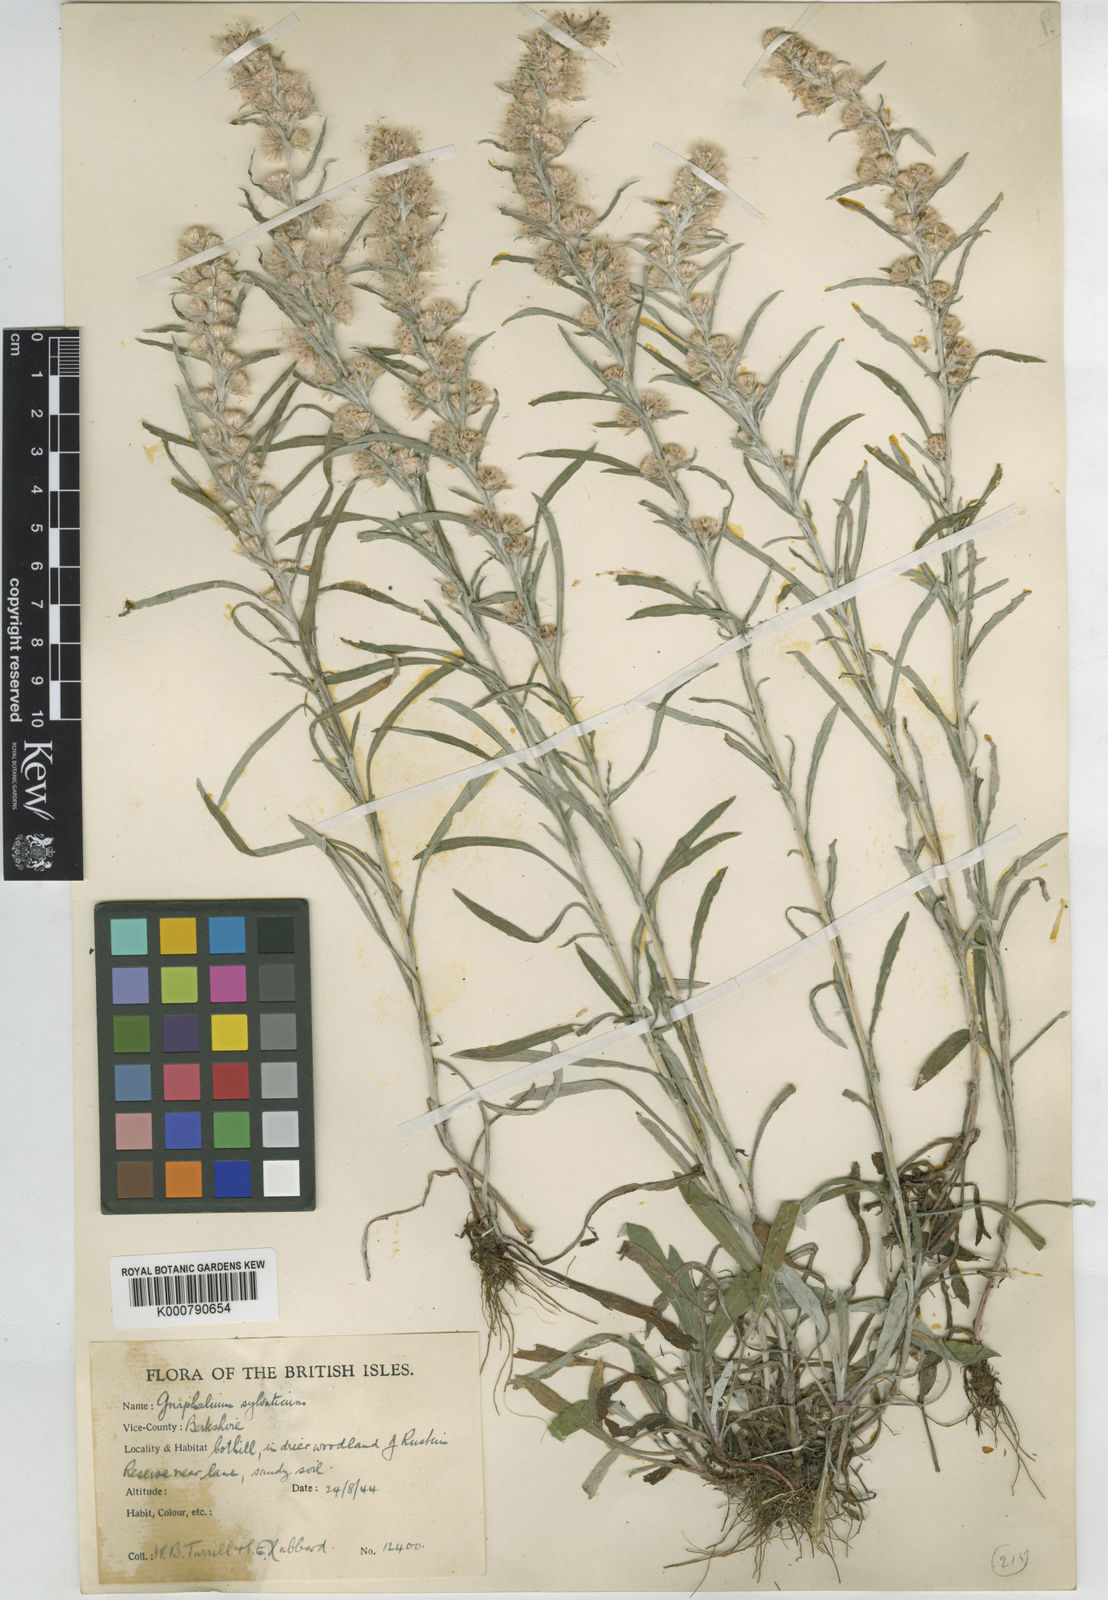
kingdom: Plantae
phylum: Tracheophyta
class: Magnoliopsida
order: Asterales
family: Asteraceae
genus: Omalotheca
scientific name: Omalotheca sylvatica
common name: Heath cudweed
